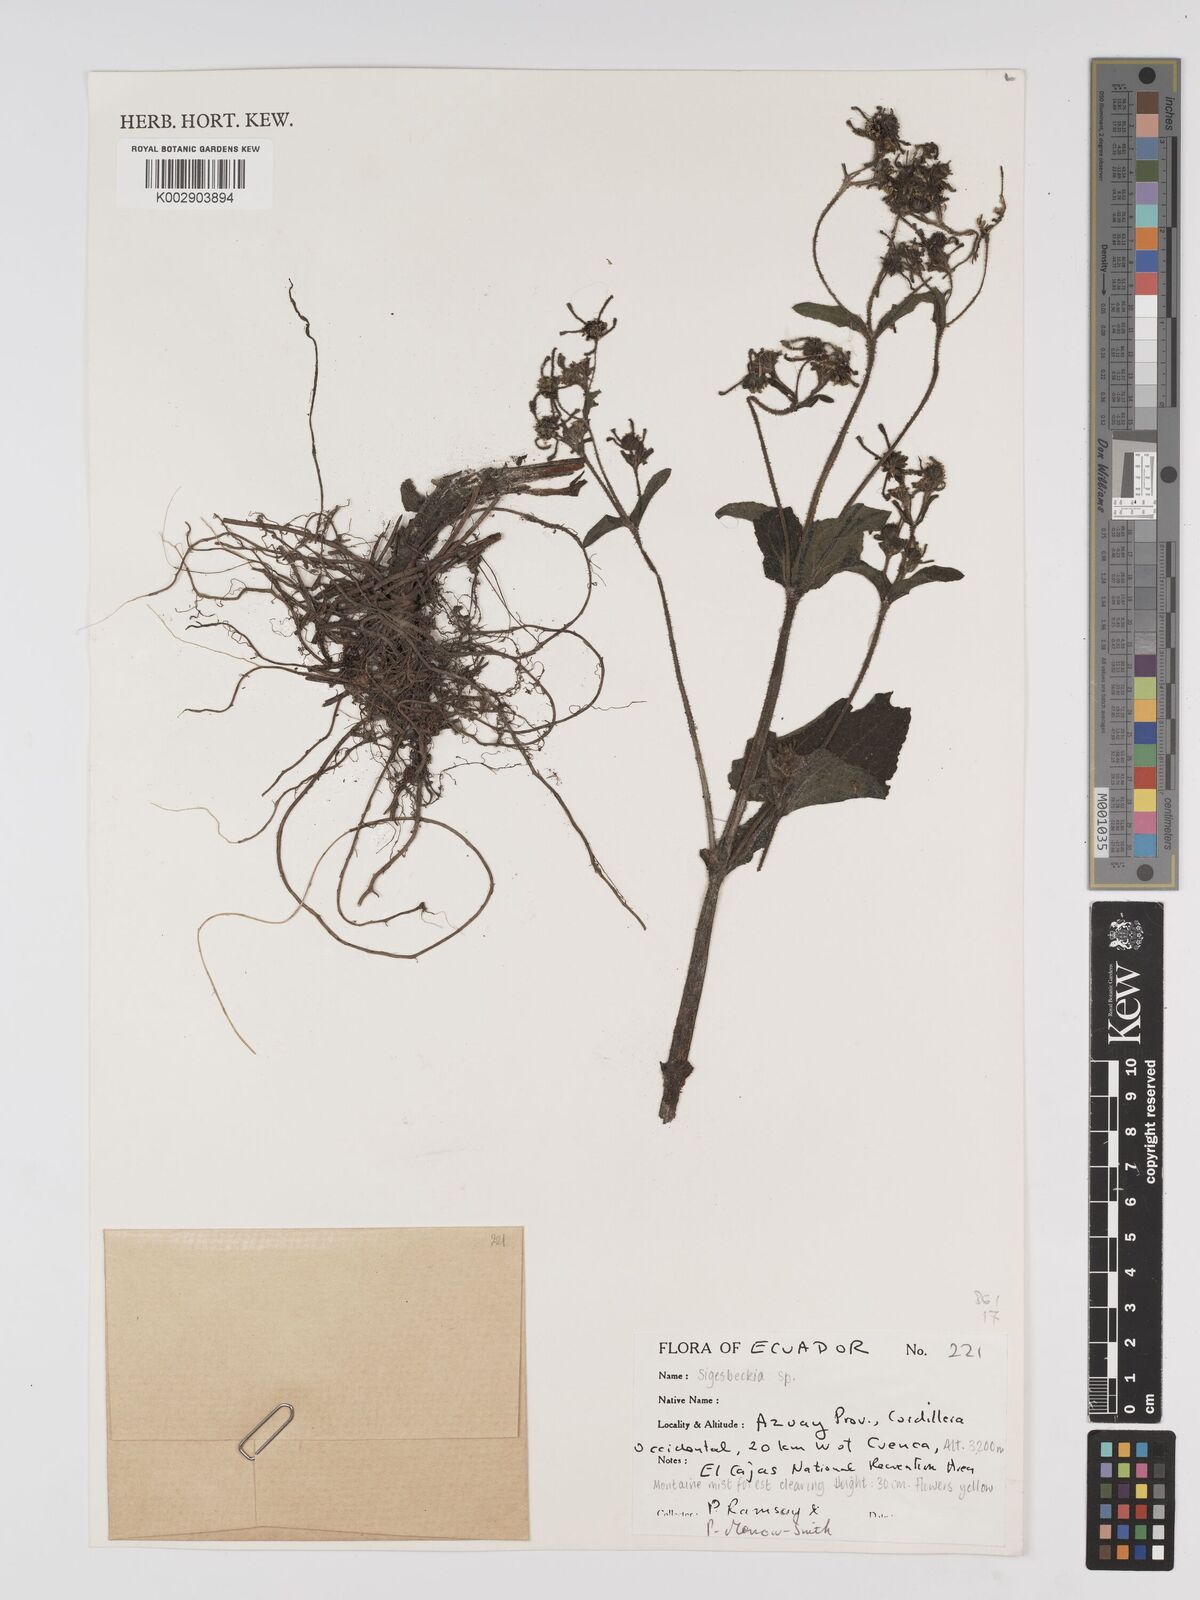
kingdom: Plantae
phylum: Tracheophyta
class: Magnoliopsida
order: Asterales
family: Asteraceae
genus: Sigesbeckia
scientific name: Sigesbeckia agrestis
